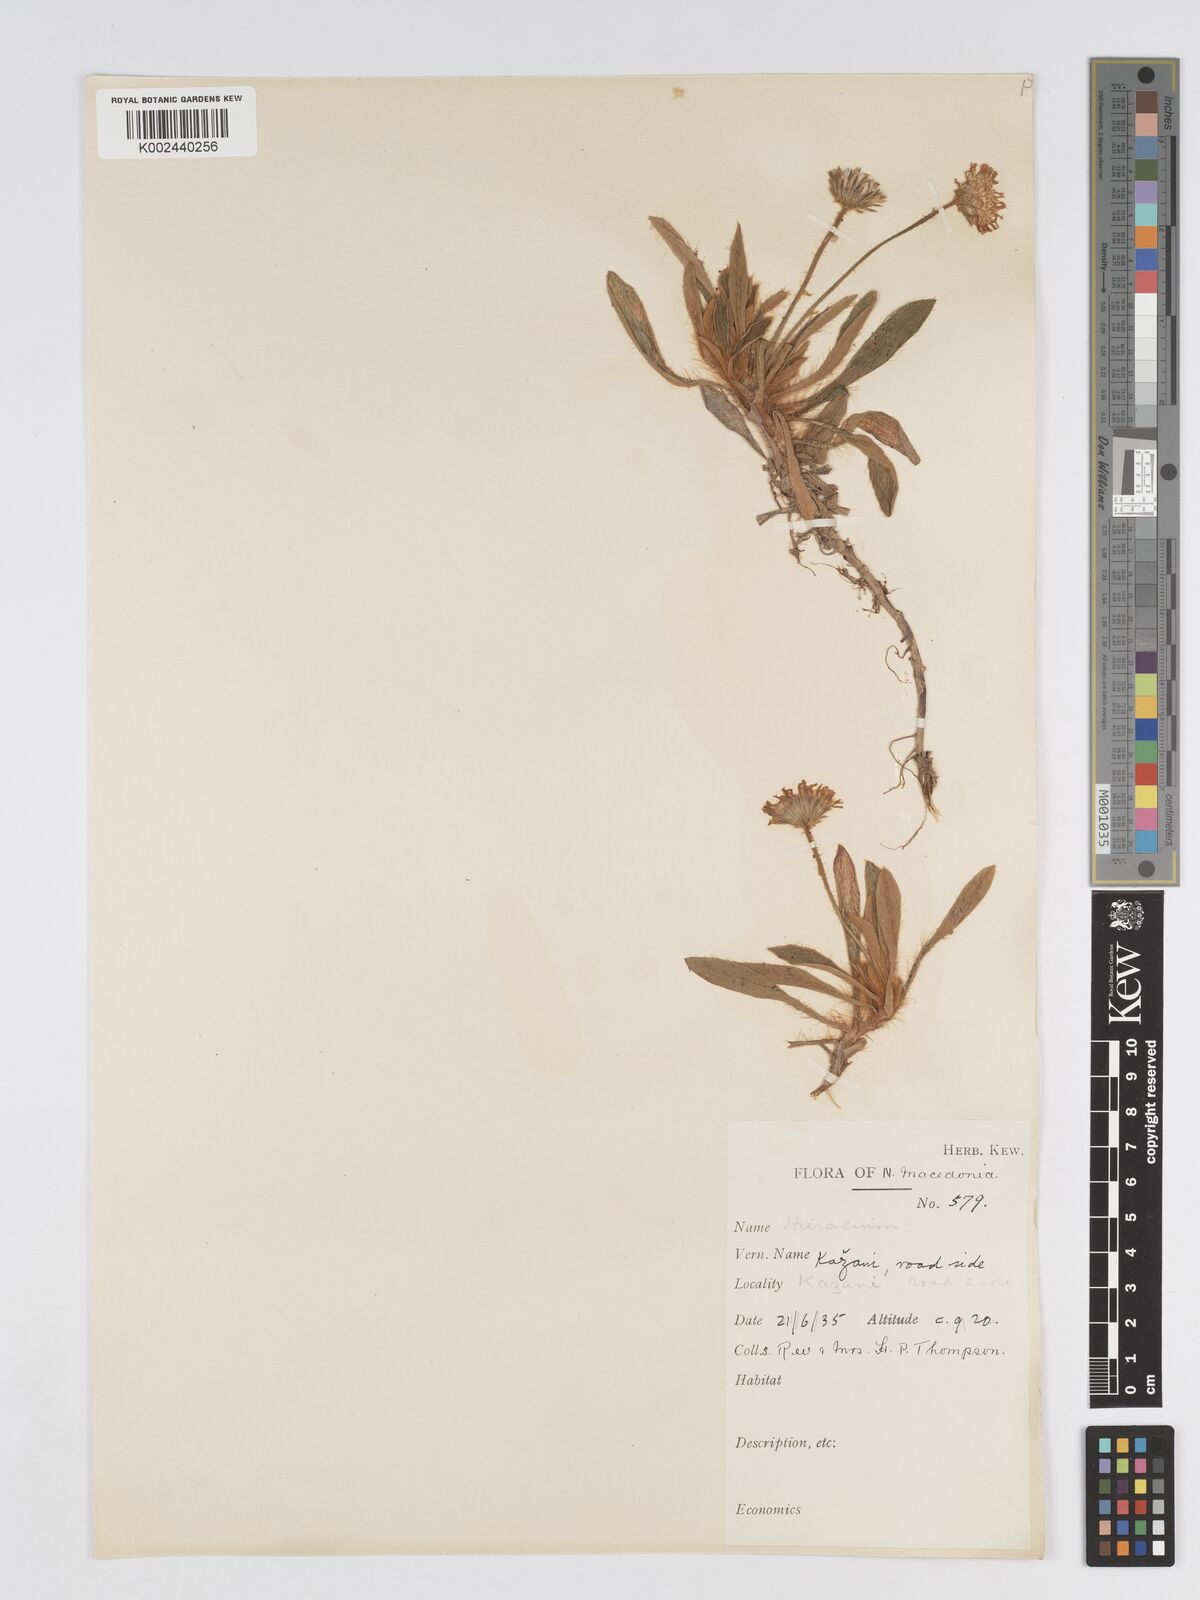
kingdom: Plantae
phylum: Tracheophyta
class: Magnoliopsida
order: Asterales
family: Asteraceae
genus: Pilosella
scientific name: Pilosella officinarum
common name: Mouse-ear hawkweed
